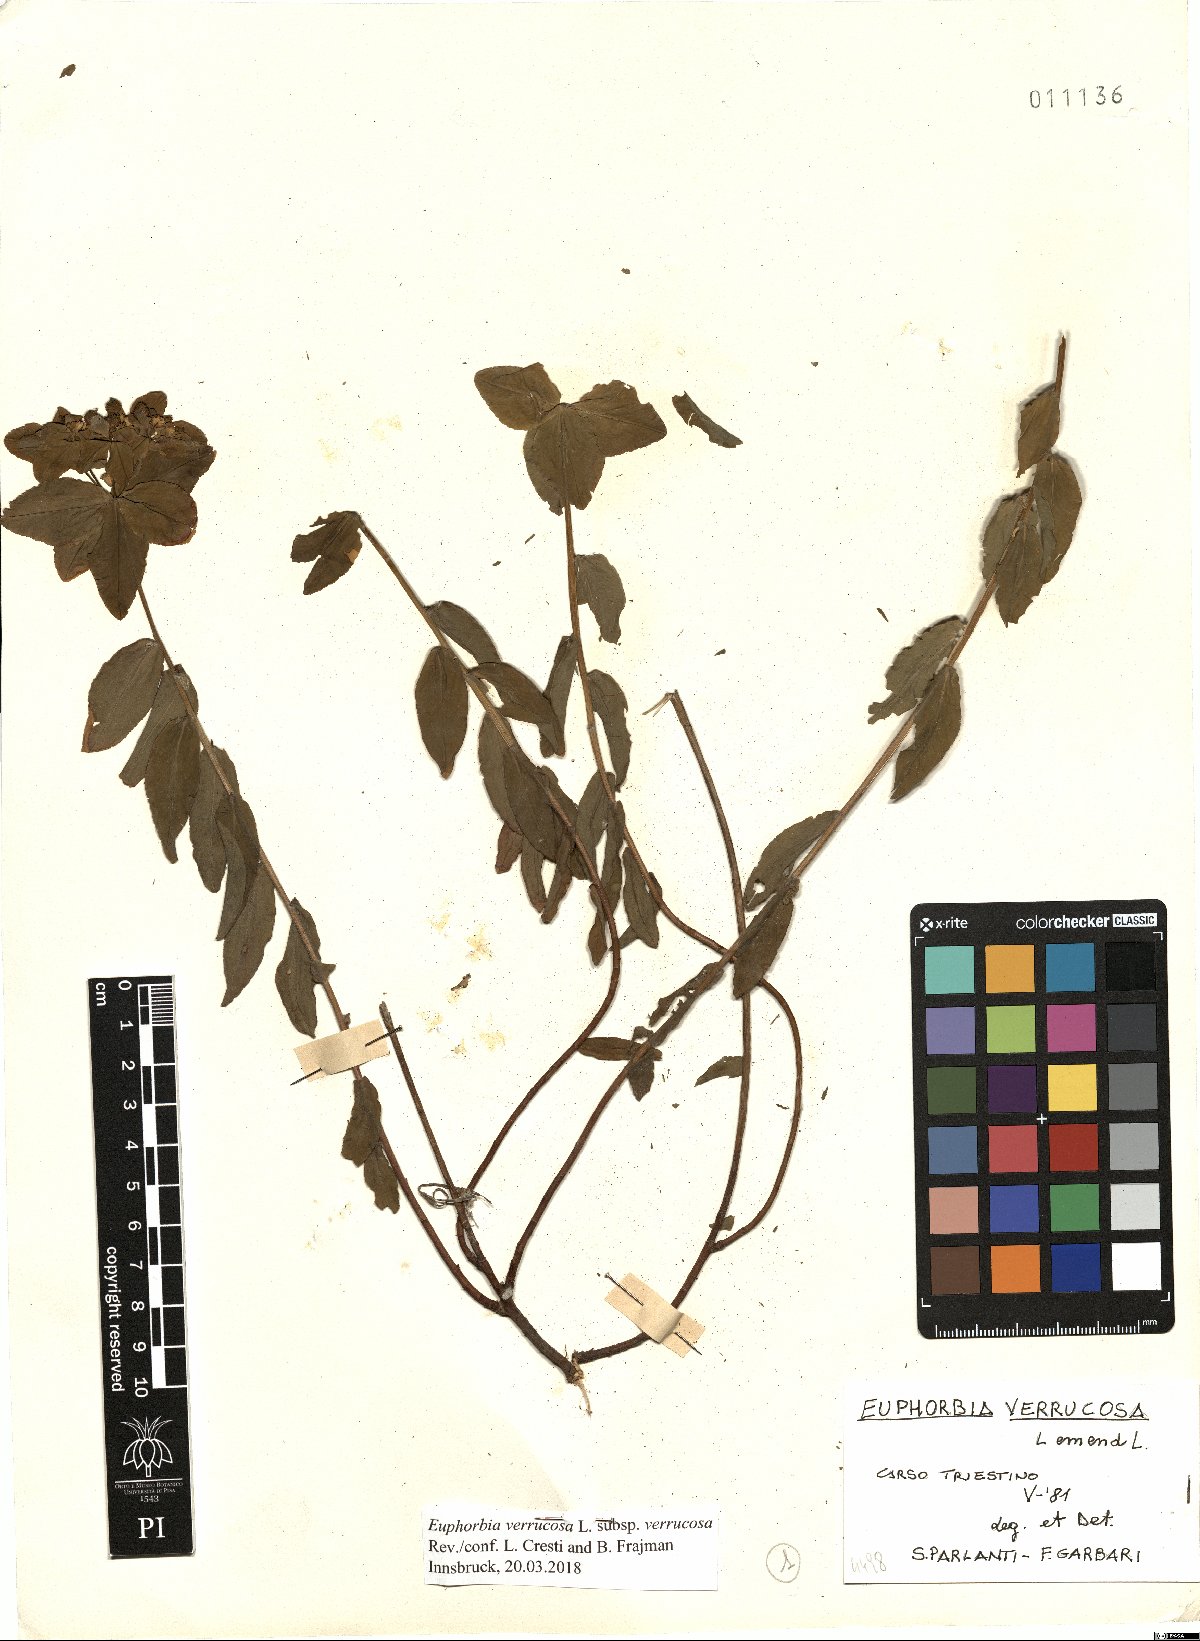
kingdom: Plantae
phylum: Tracheophyta
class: Magnoliopsida
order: Malpighiales
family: Euphorbiaceae
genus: Euphorbia
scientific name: Euphorbia verrucosa
